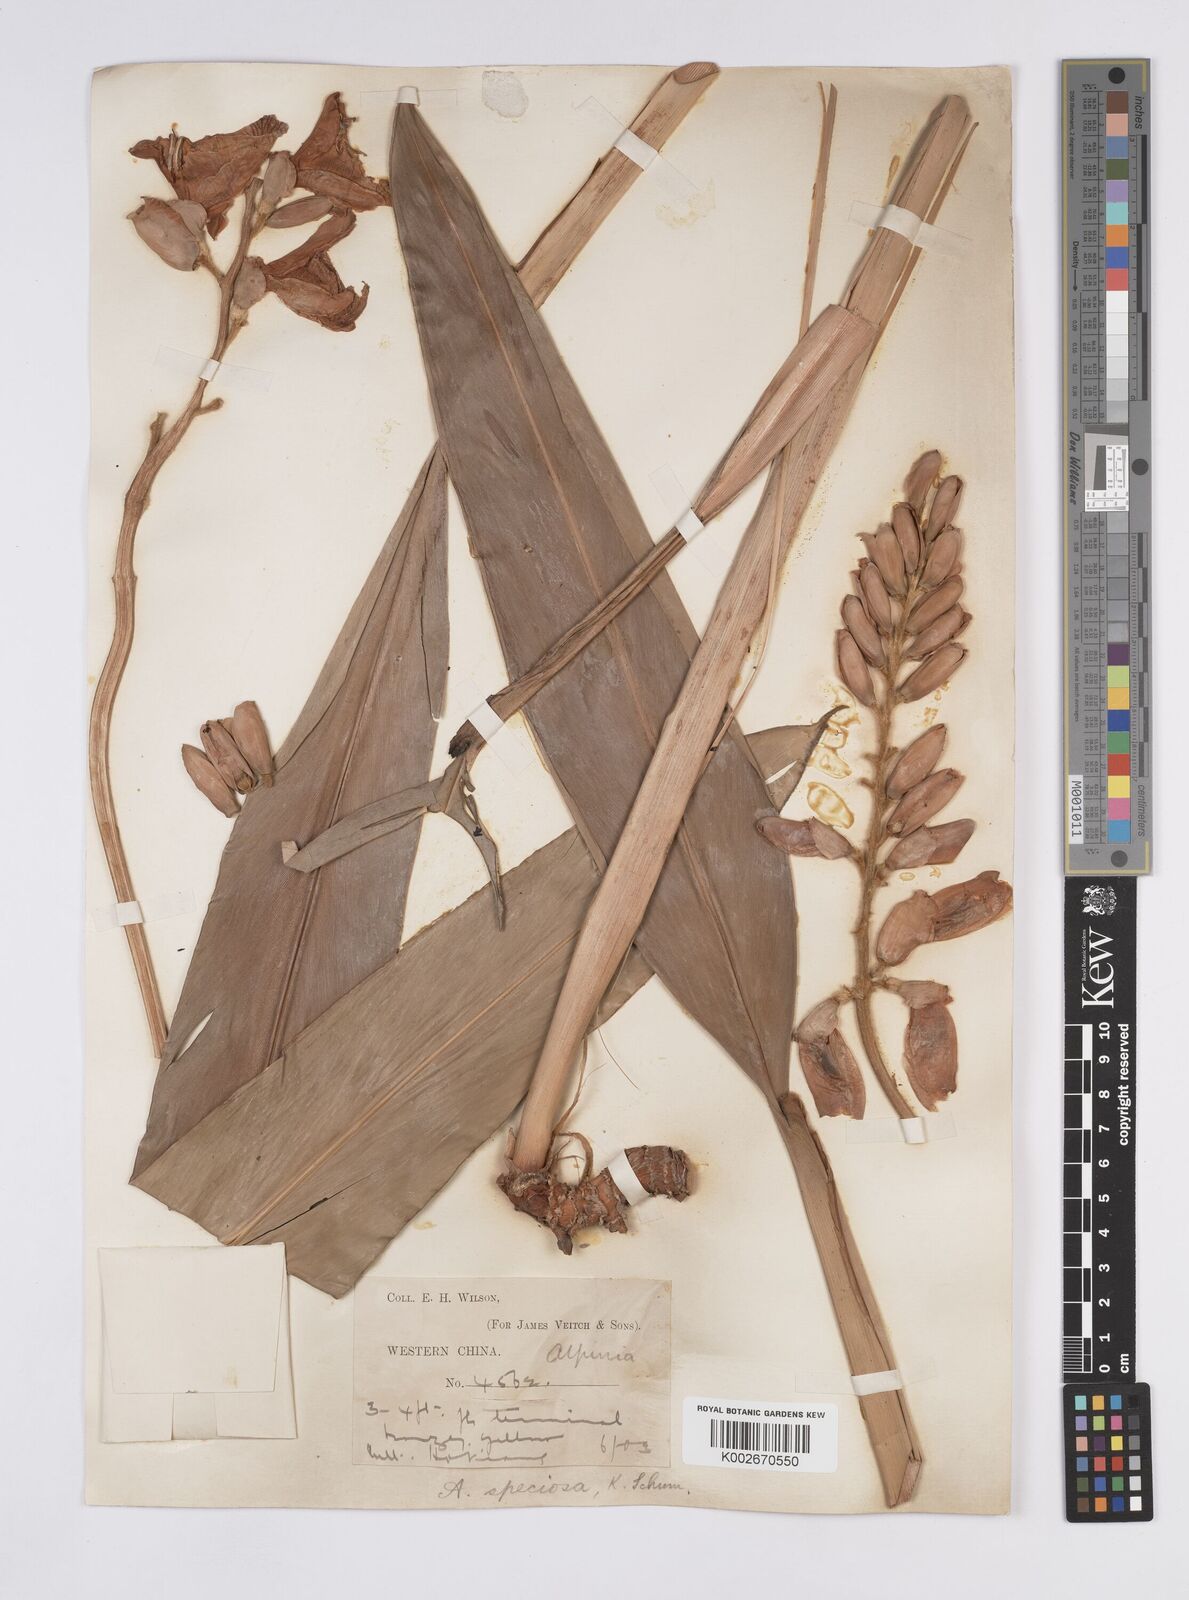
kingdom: Plantae
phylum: Tracheophyta
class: Liliopsida
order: Zingiberales
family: Zingiberaceae
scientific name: Zingiberaceae
